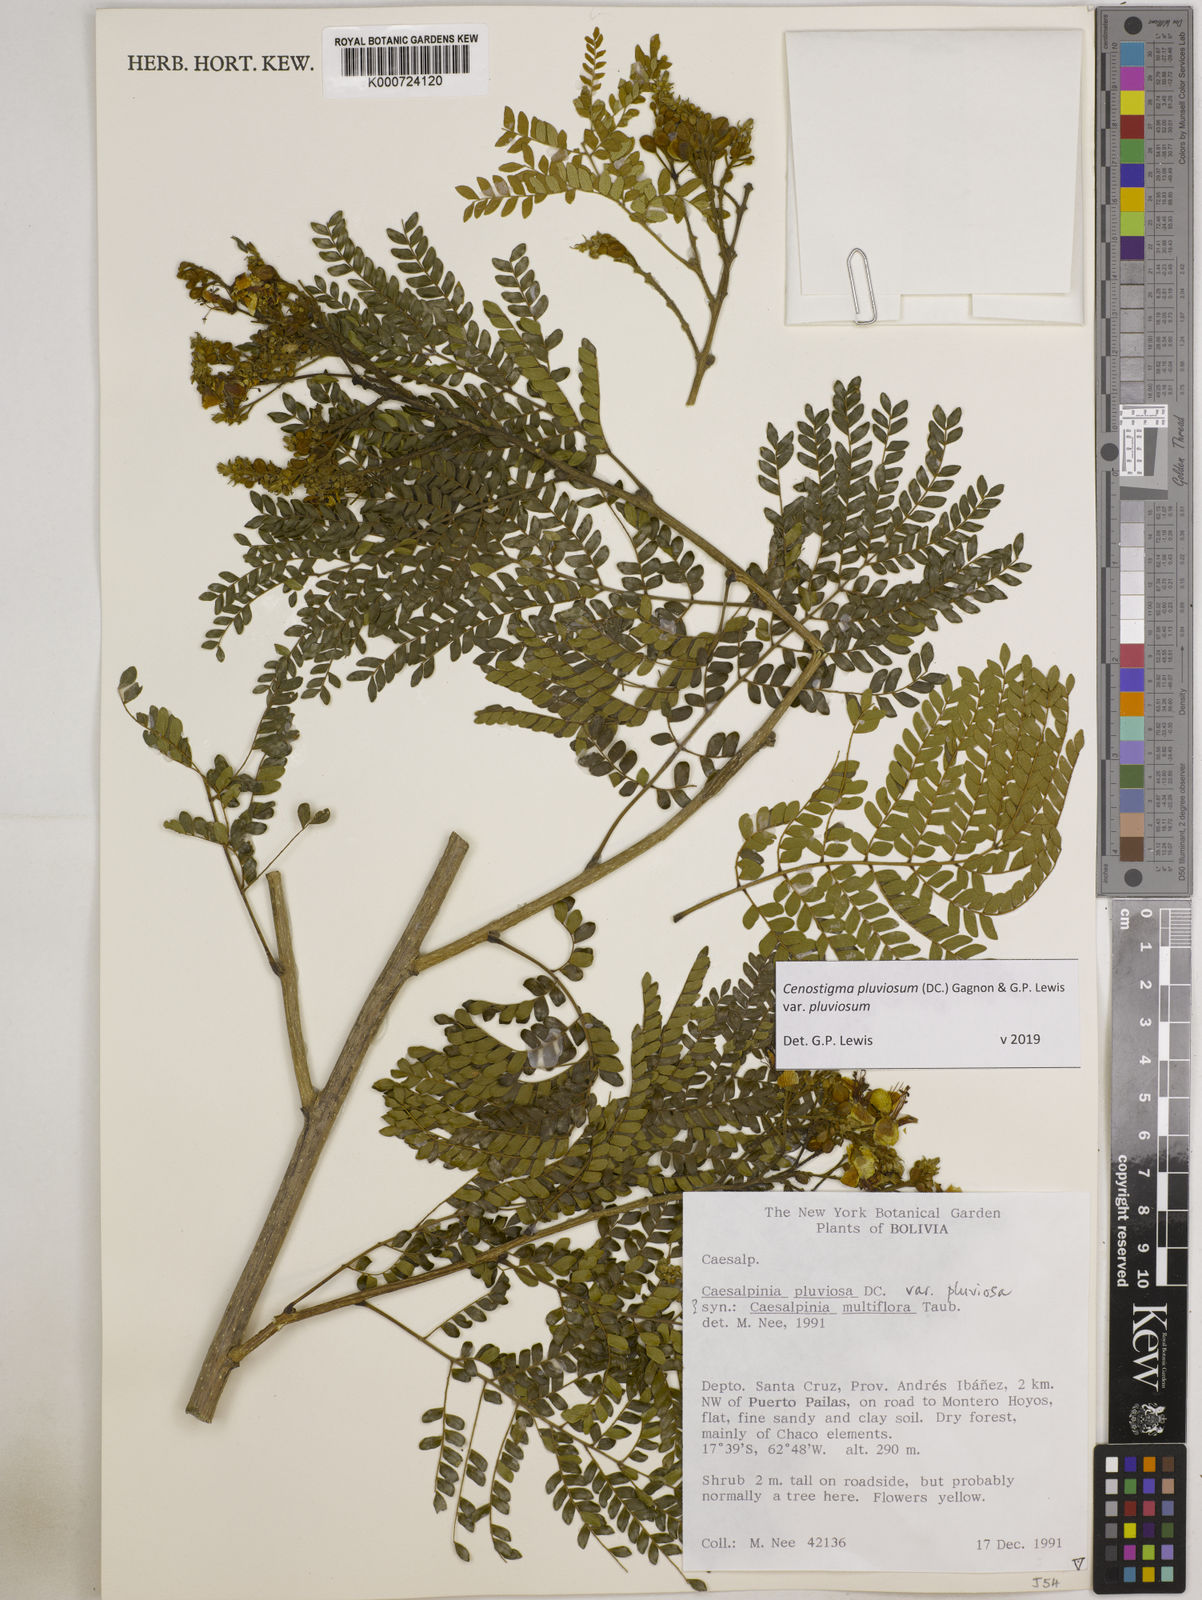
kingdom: Plantae
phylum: Tracheophyta
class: Magnoliopsida
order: Fabales
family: Fabaceae
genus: Cenostigma
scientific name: Cenostigma pluviosum
